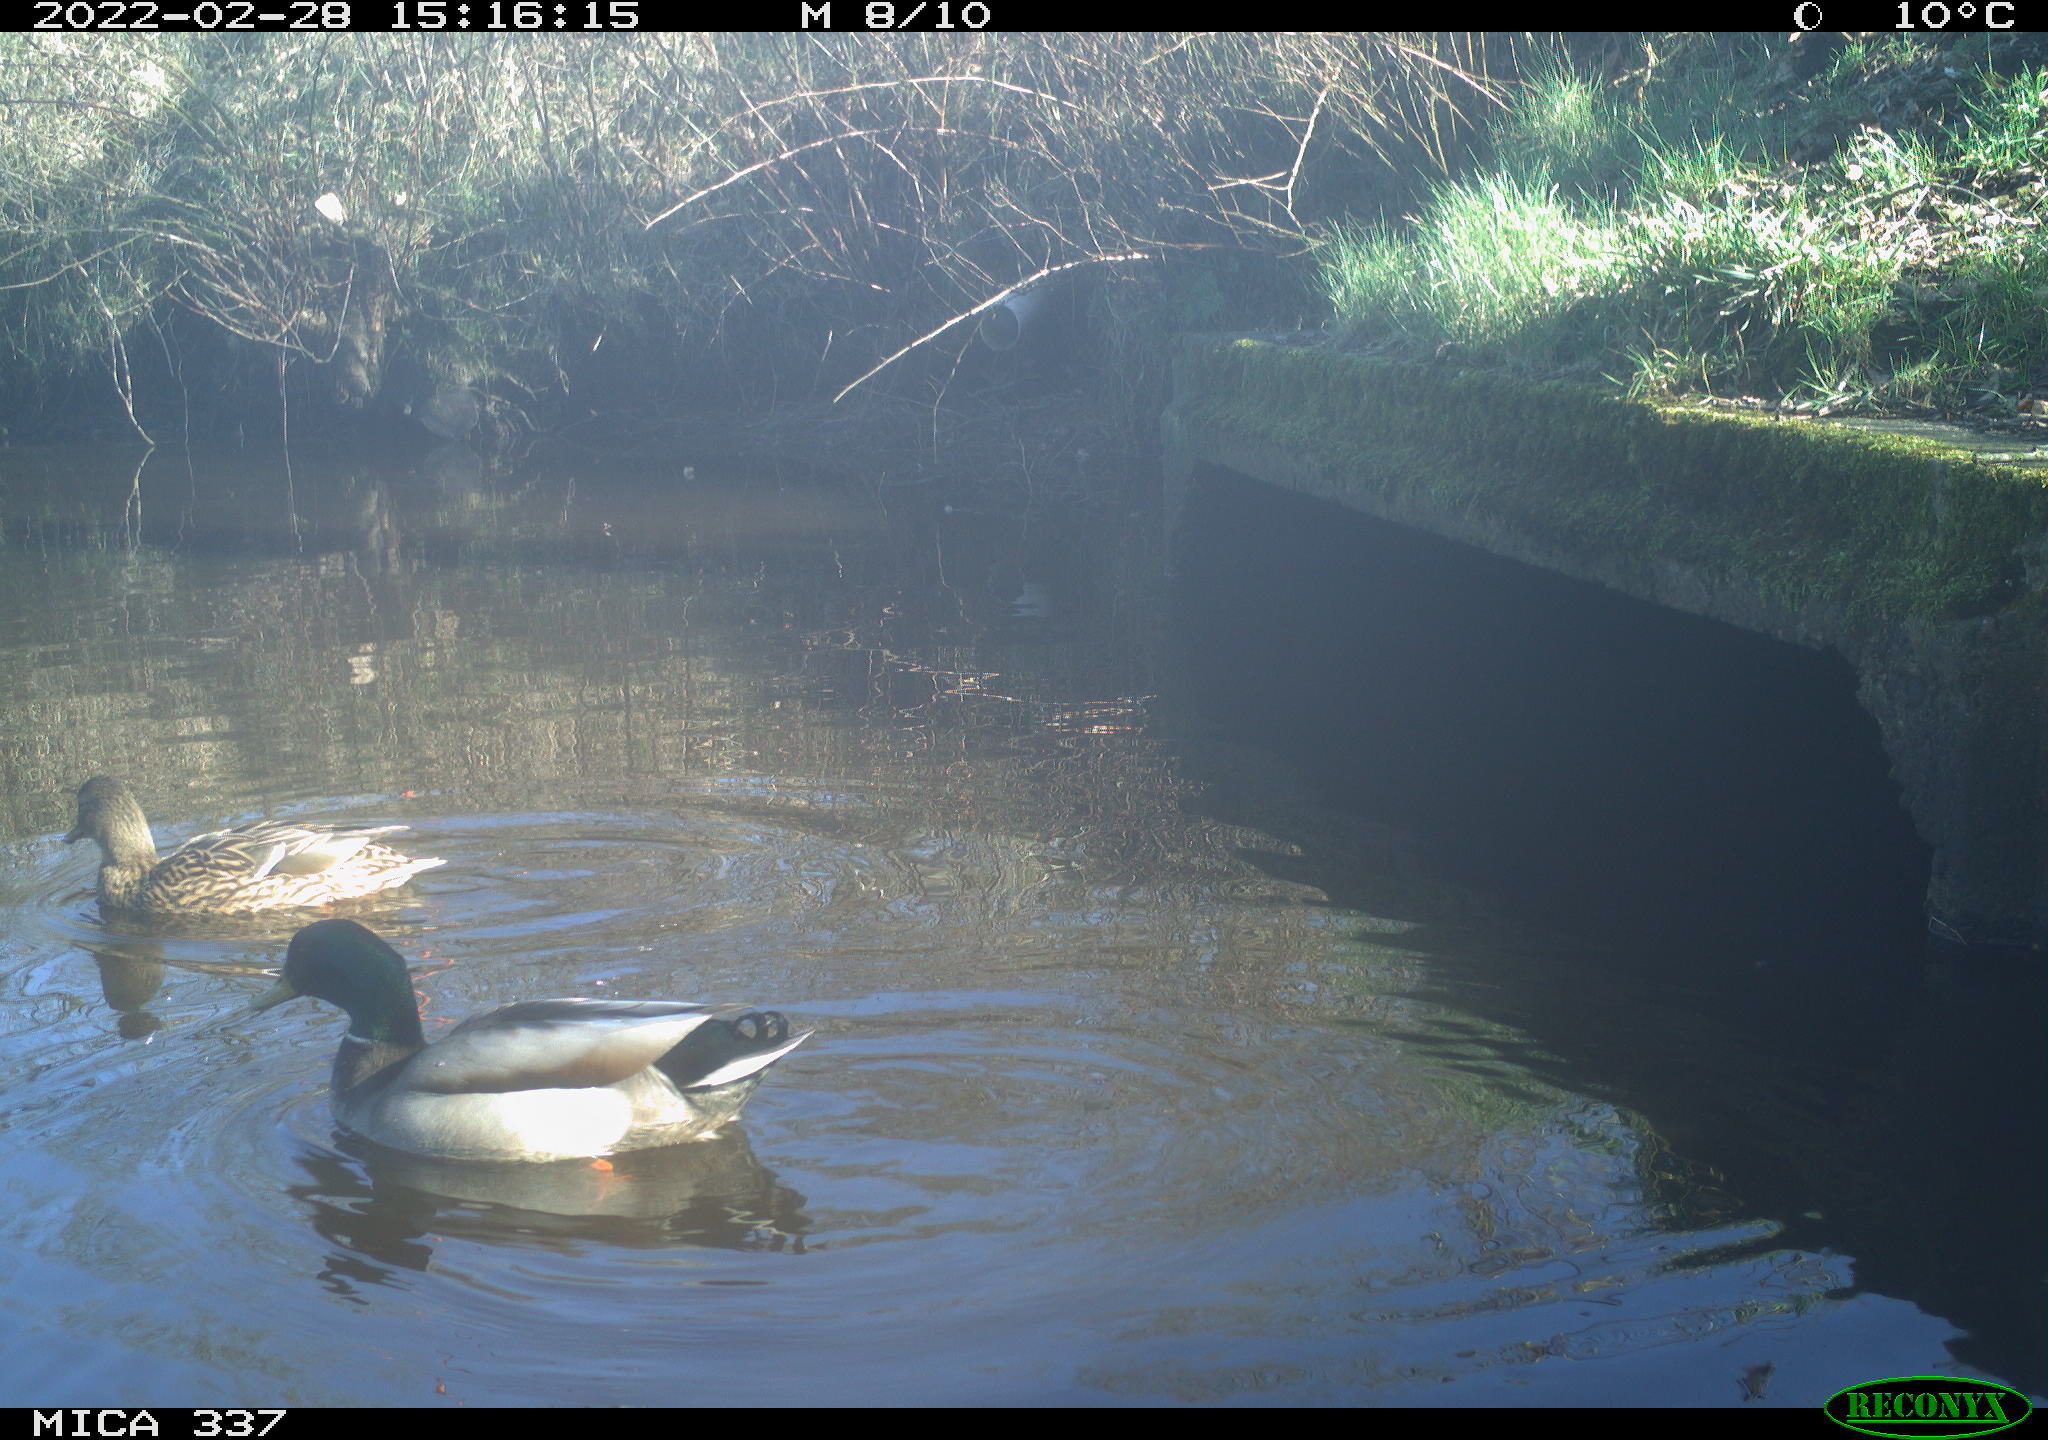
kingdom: Animalia
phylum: Chordata
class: Aves
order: Anseriformes
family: Anatidae
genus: Anas
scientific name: Anas platyrhynchos
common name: Mallard
